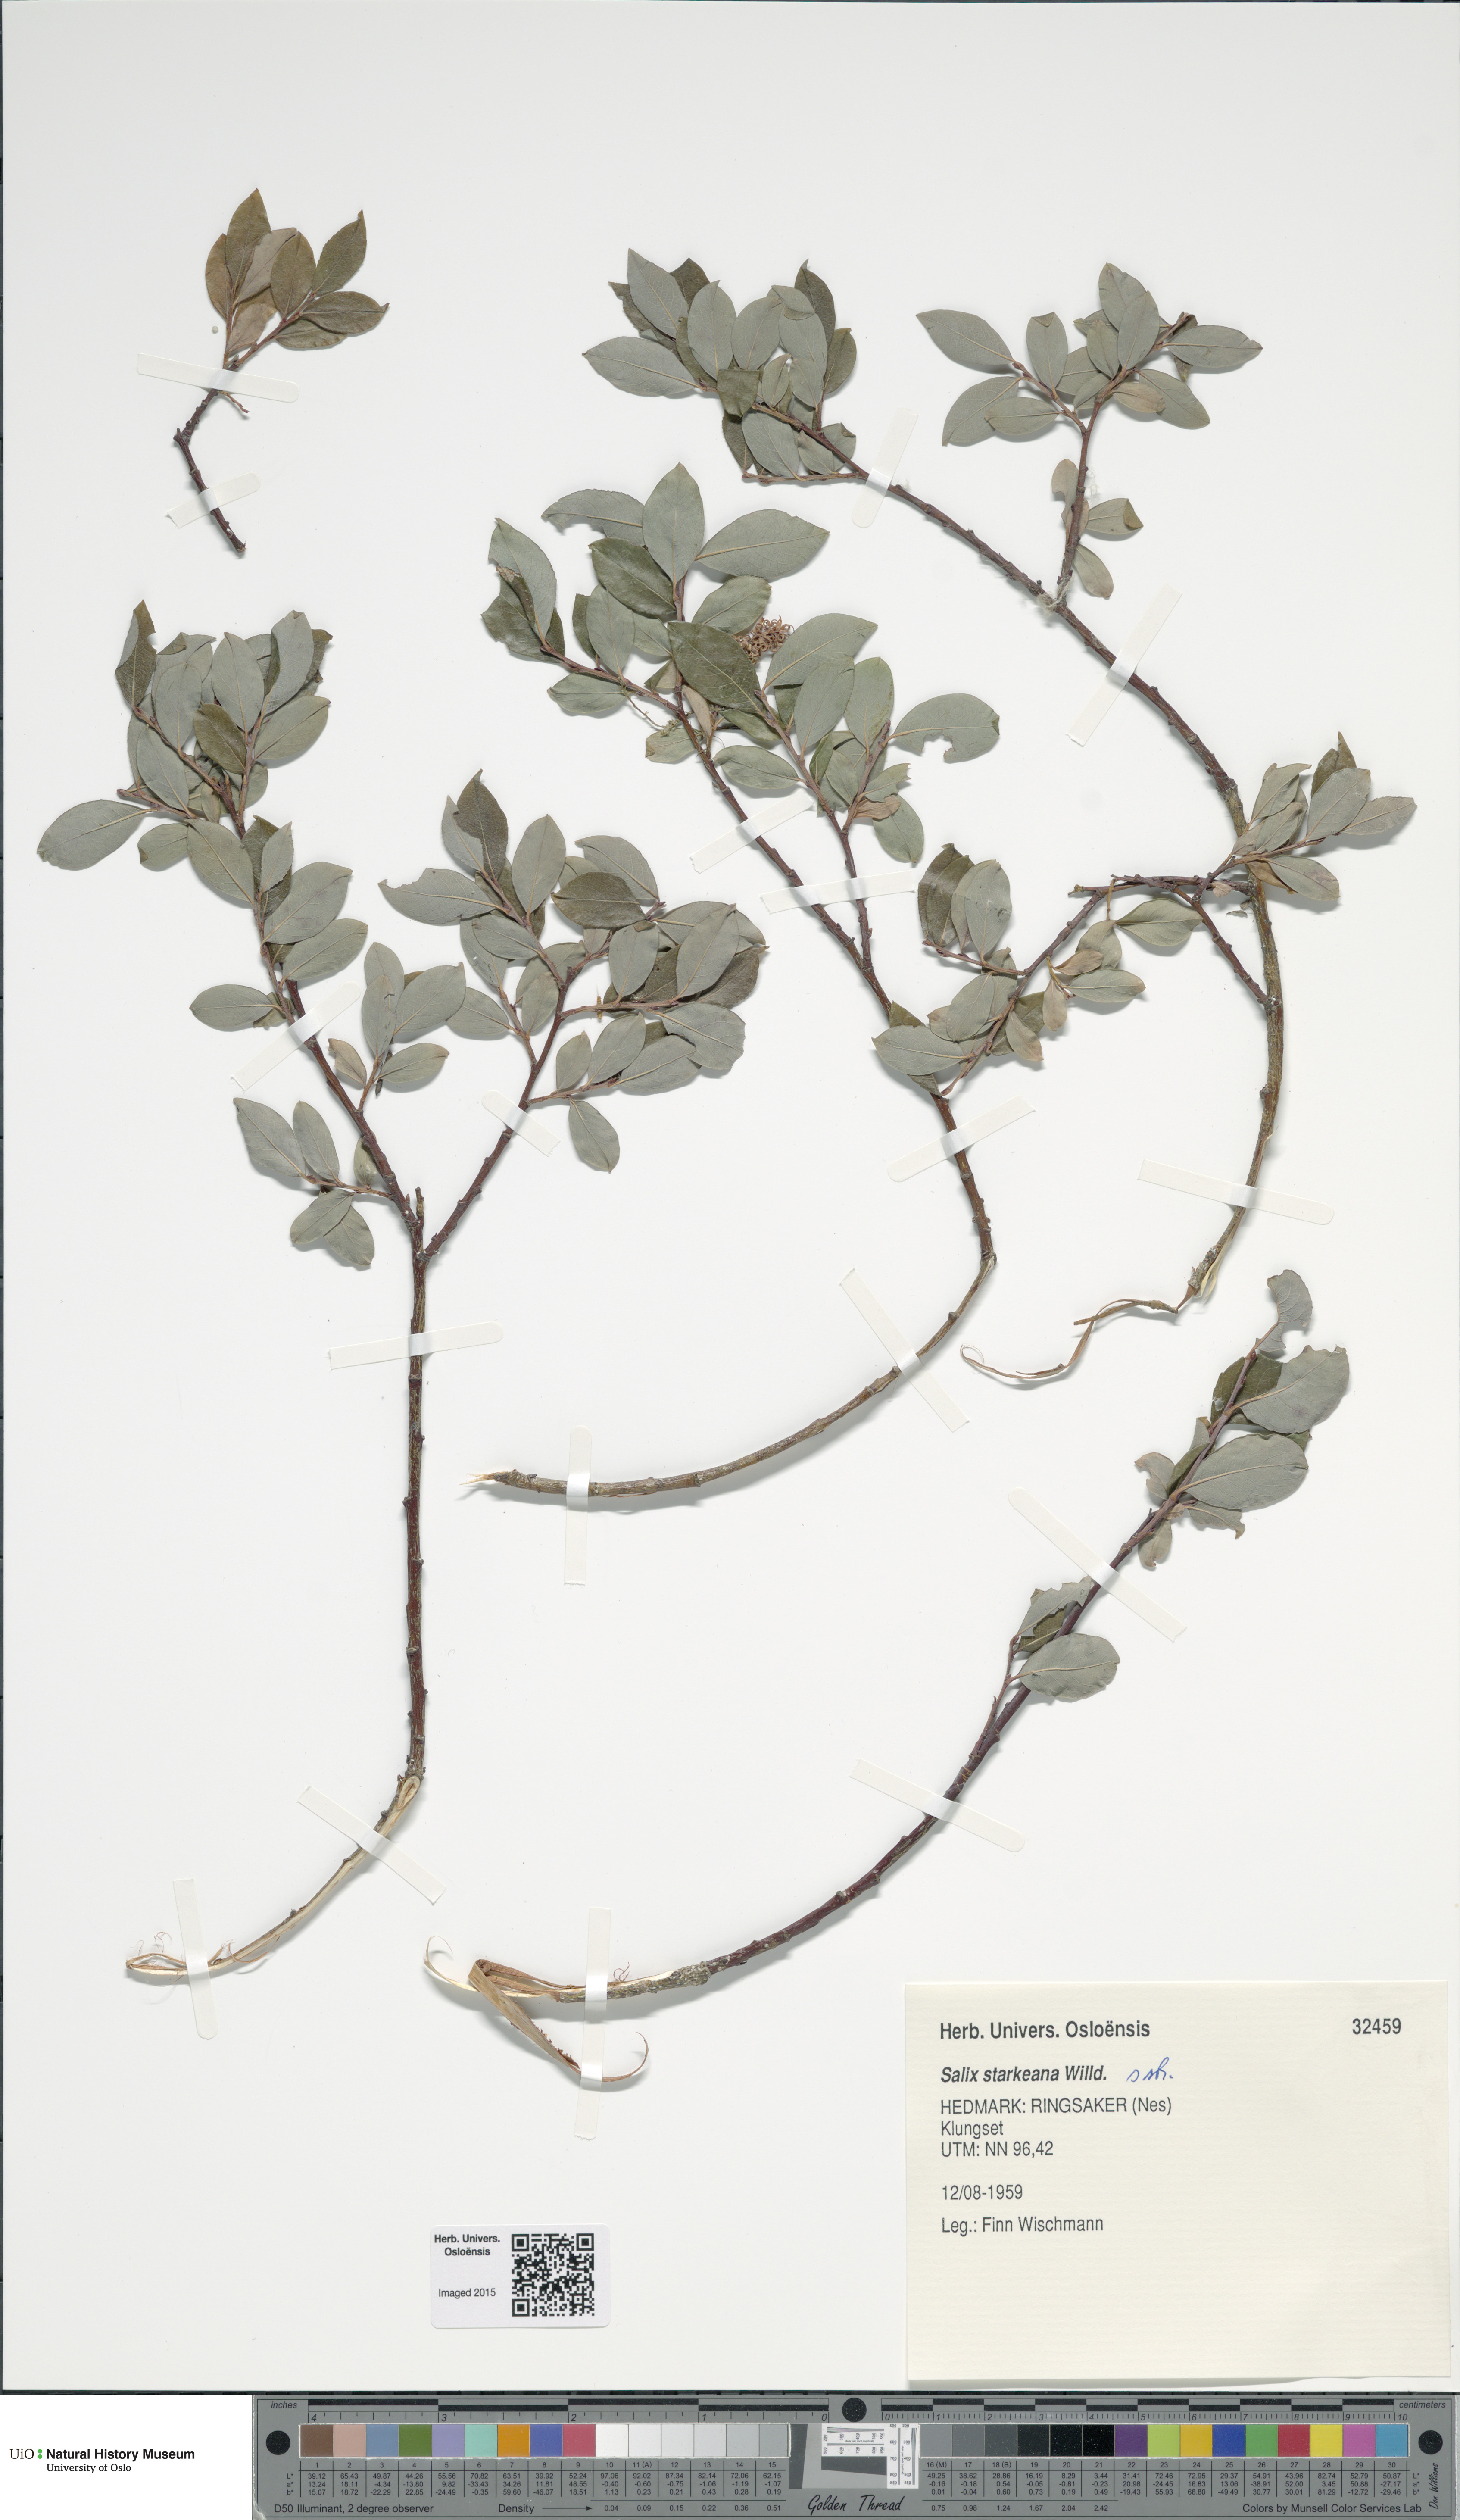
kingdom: Plantae
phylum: Tracheophyta
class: Magnoliopsida
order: Malpighiales
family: Salicaceae
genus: Salix
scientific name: Salix starkeana
